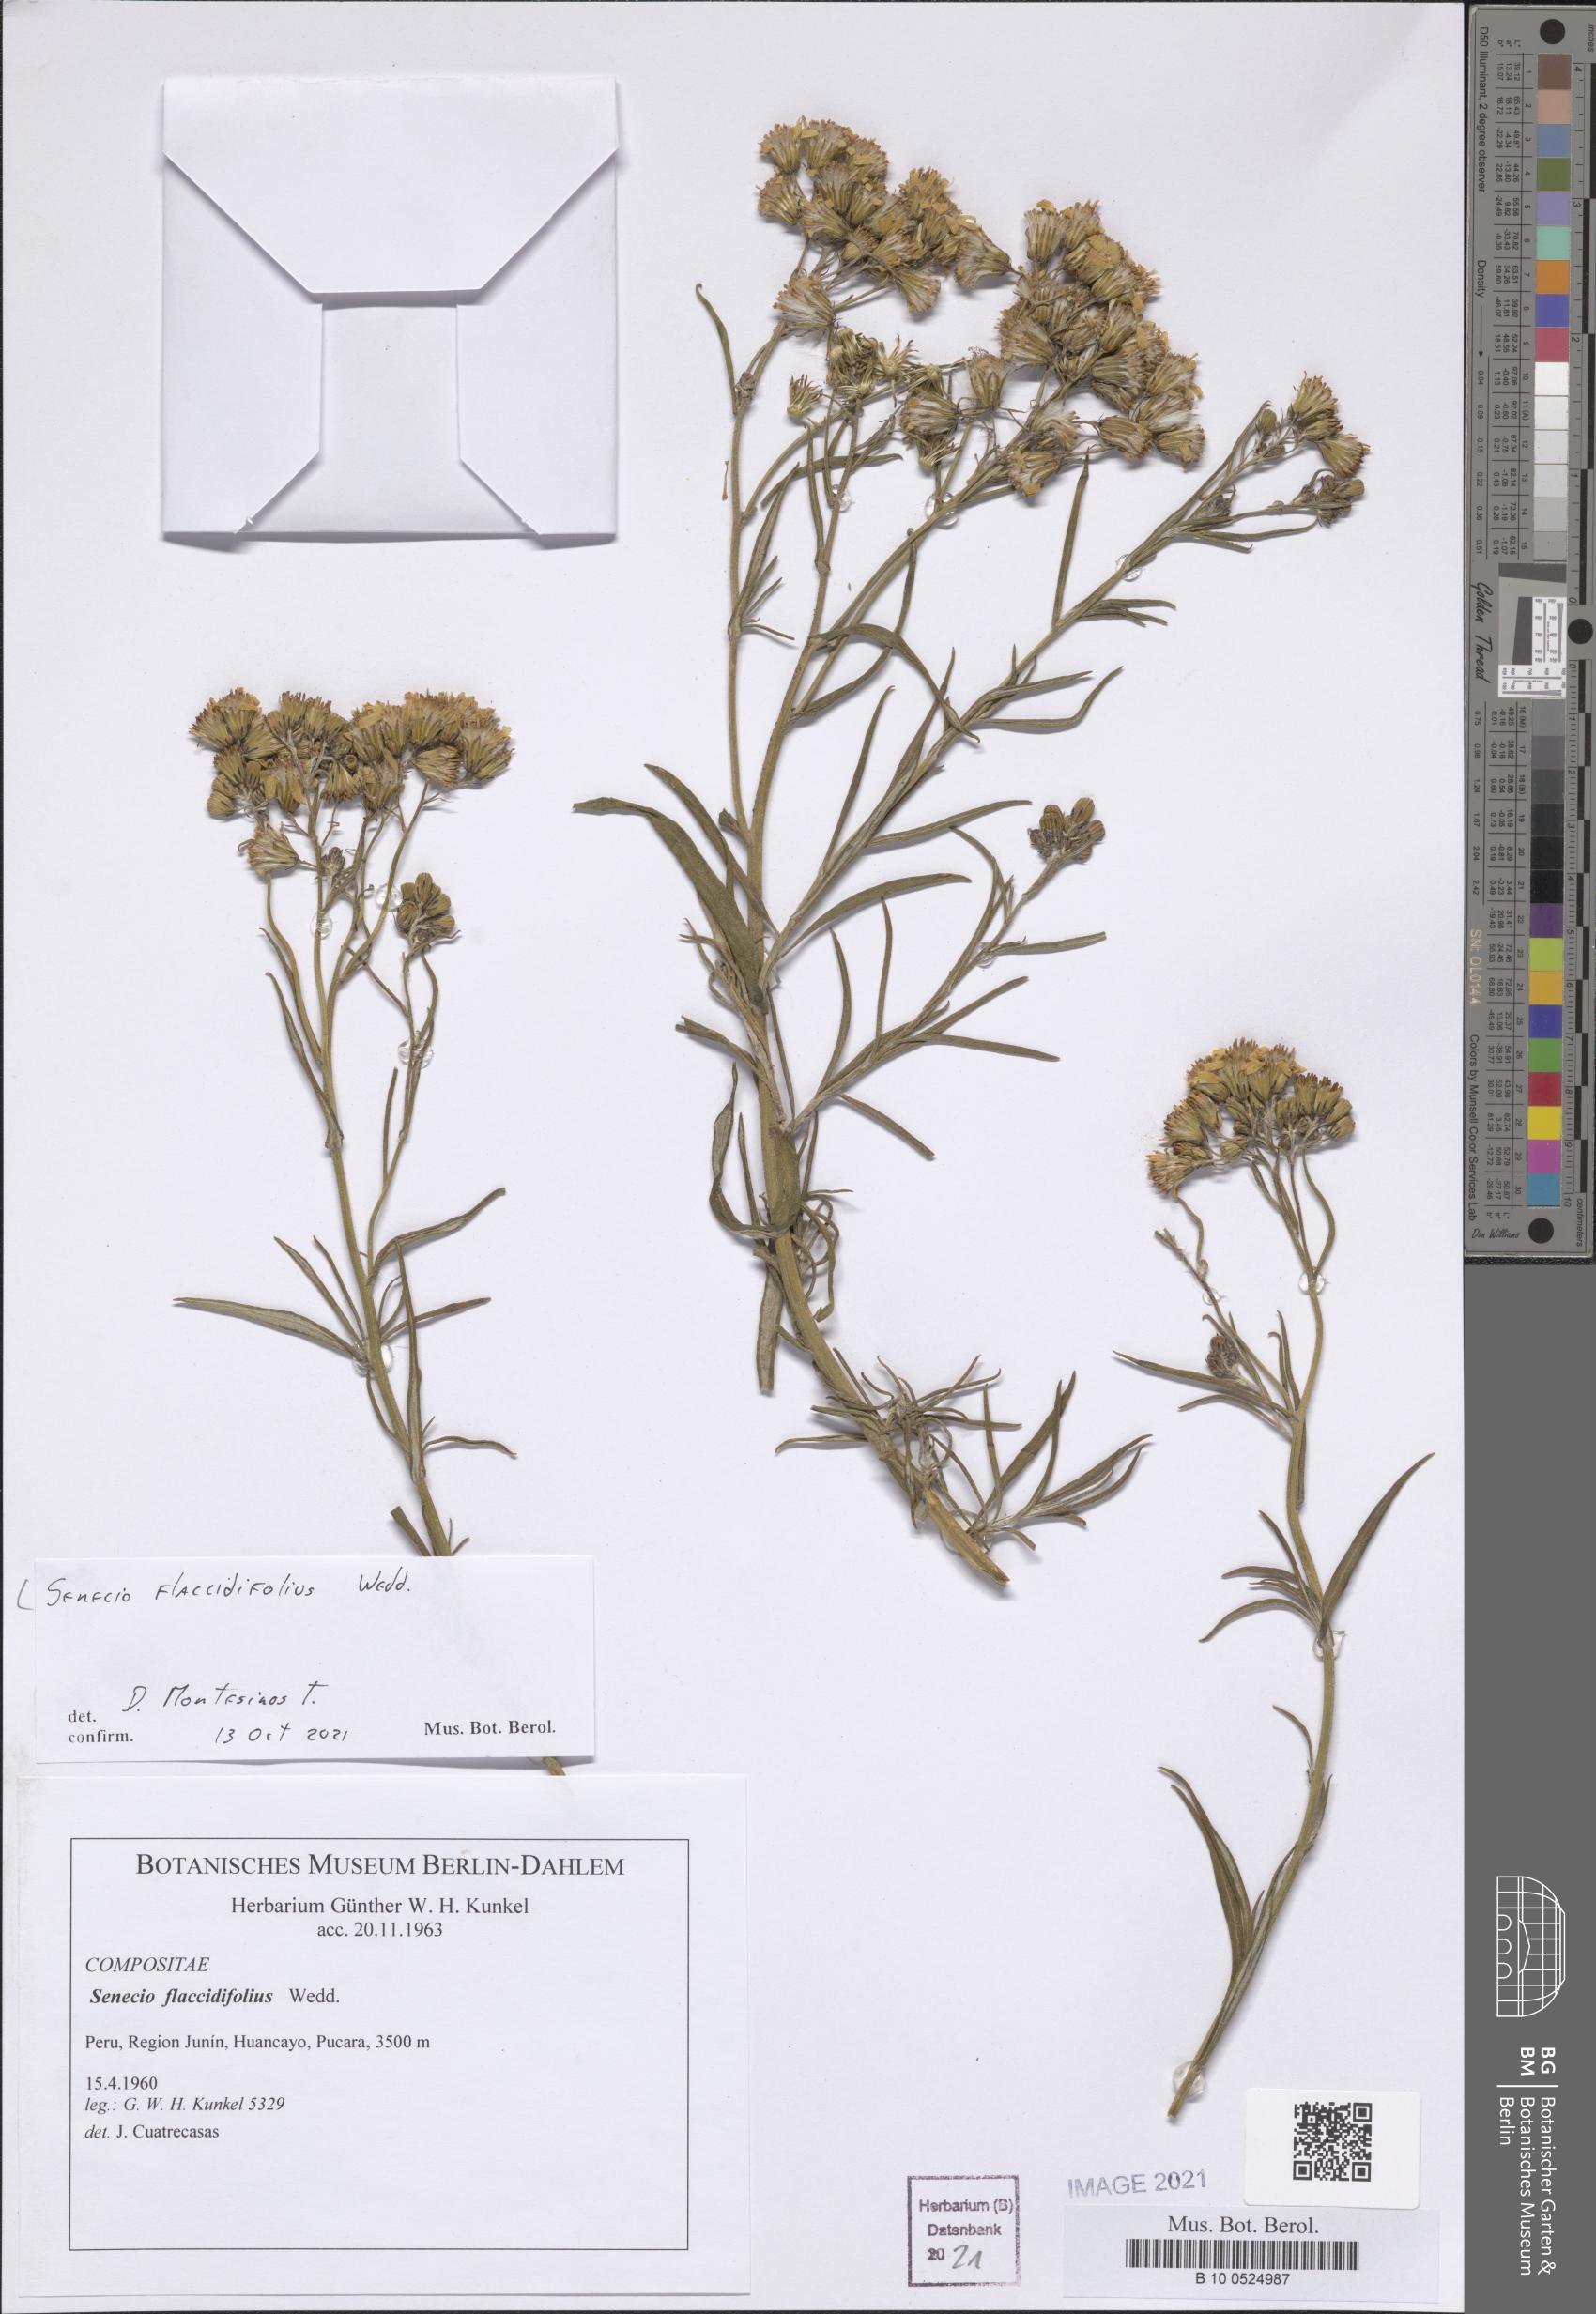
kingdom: Plantae
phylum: Tracheophyta
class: Magnoliopsida
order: Asterales
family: Asteraceae
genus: Senecio
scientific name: Senecio flaccidifolius
